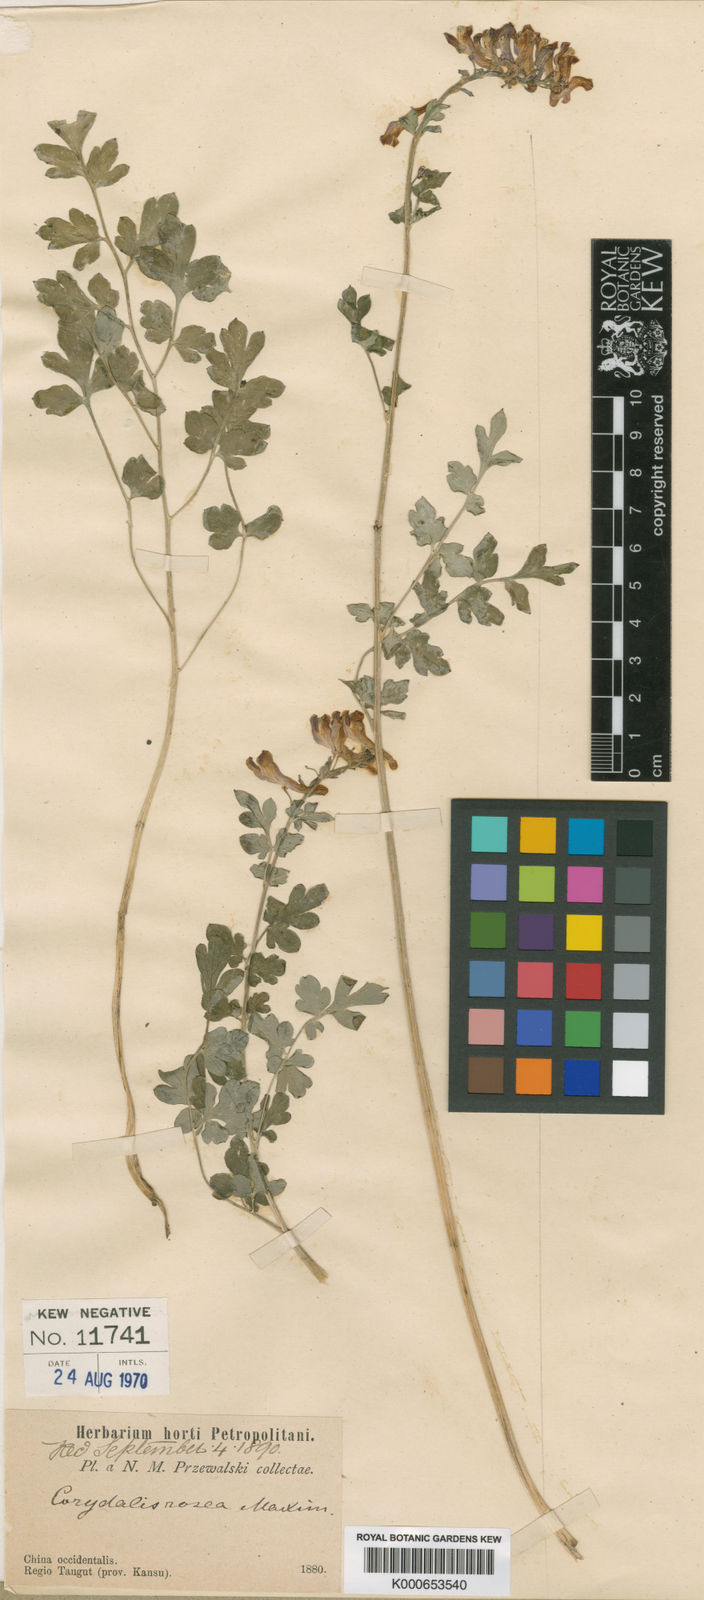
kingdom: Plantae
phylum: Tracheophyta
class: Magnoliopsida
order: Ranunculales
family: Papaveraceae
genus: Corydalis
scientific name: Corydalis livida
